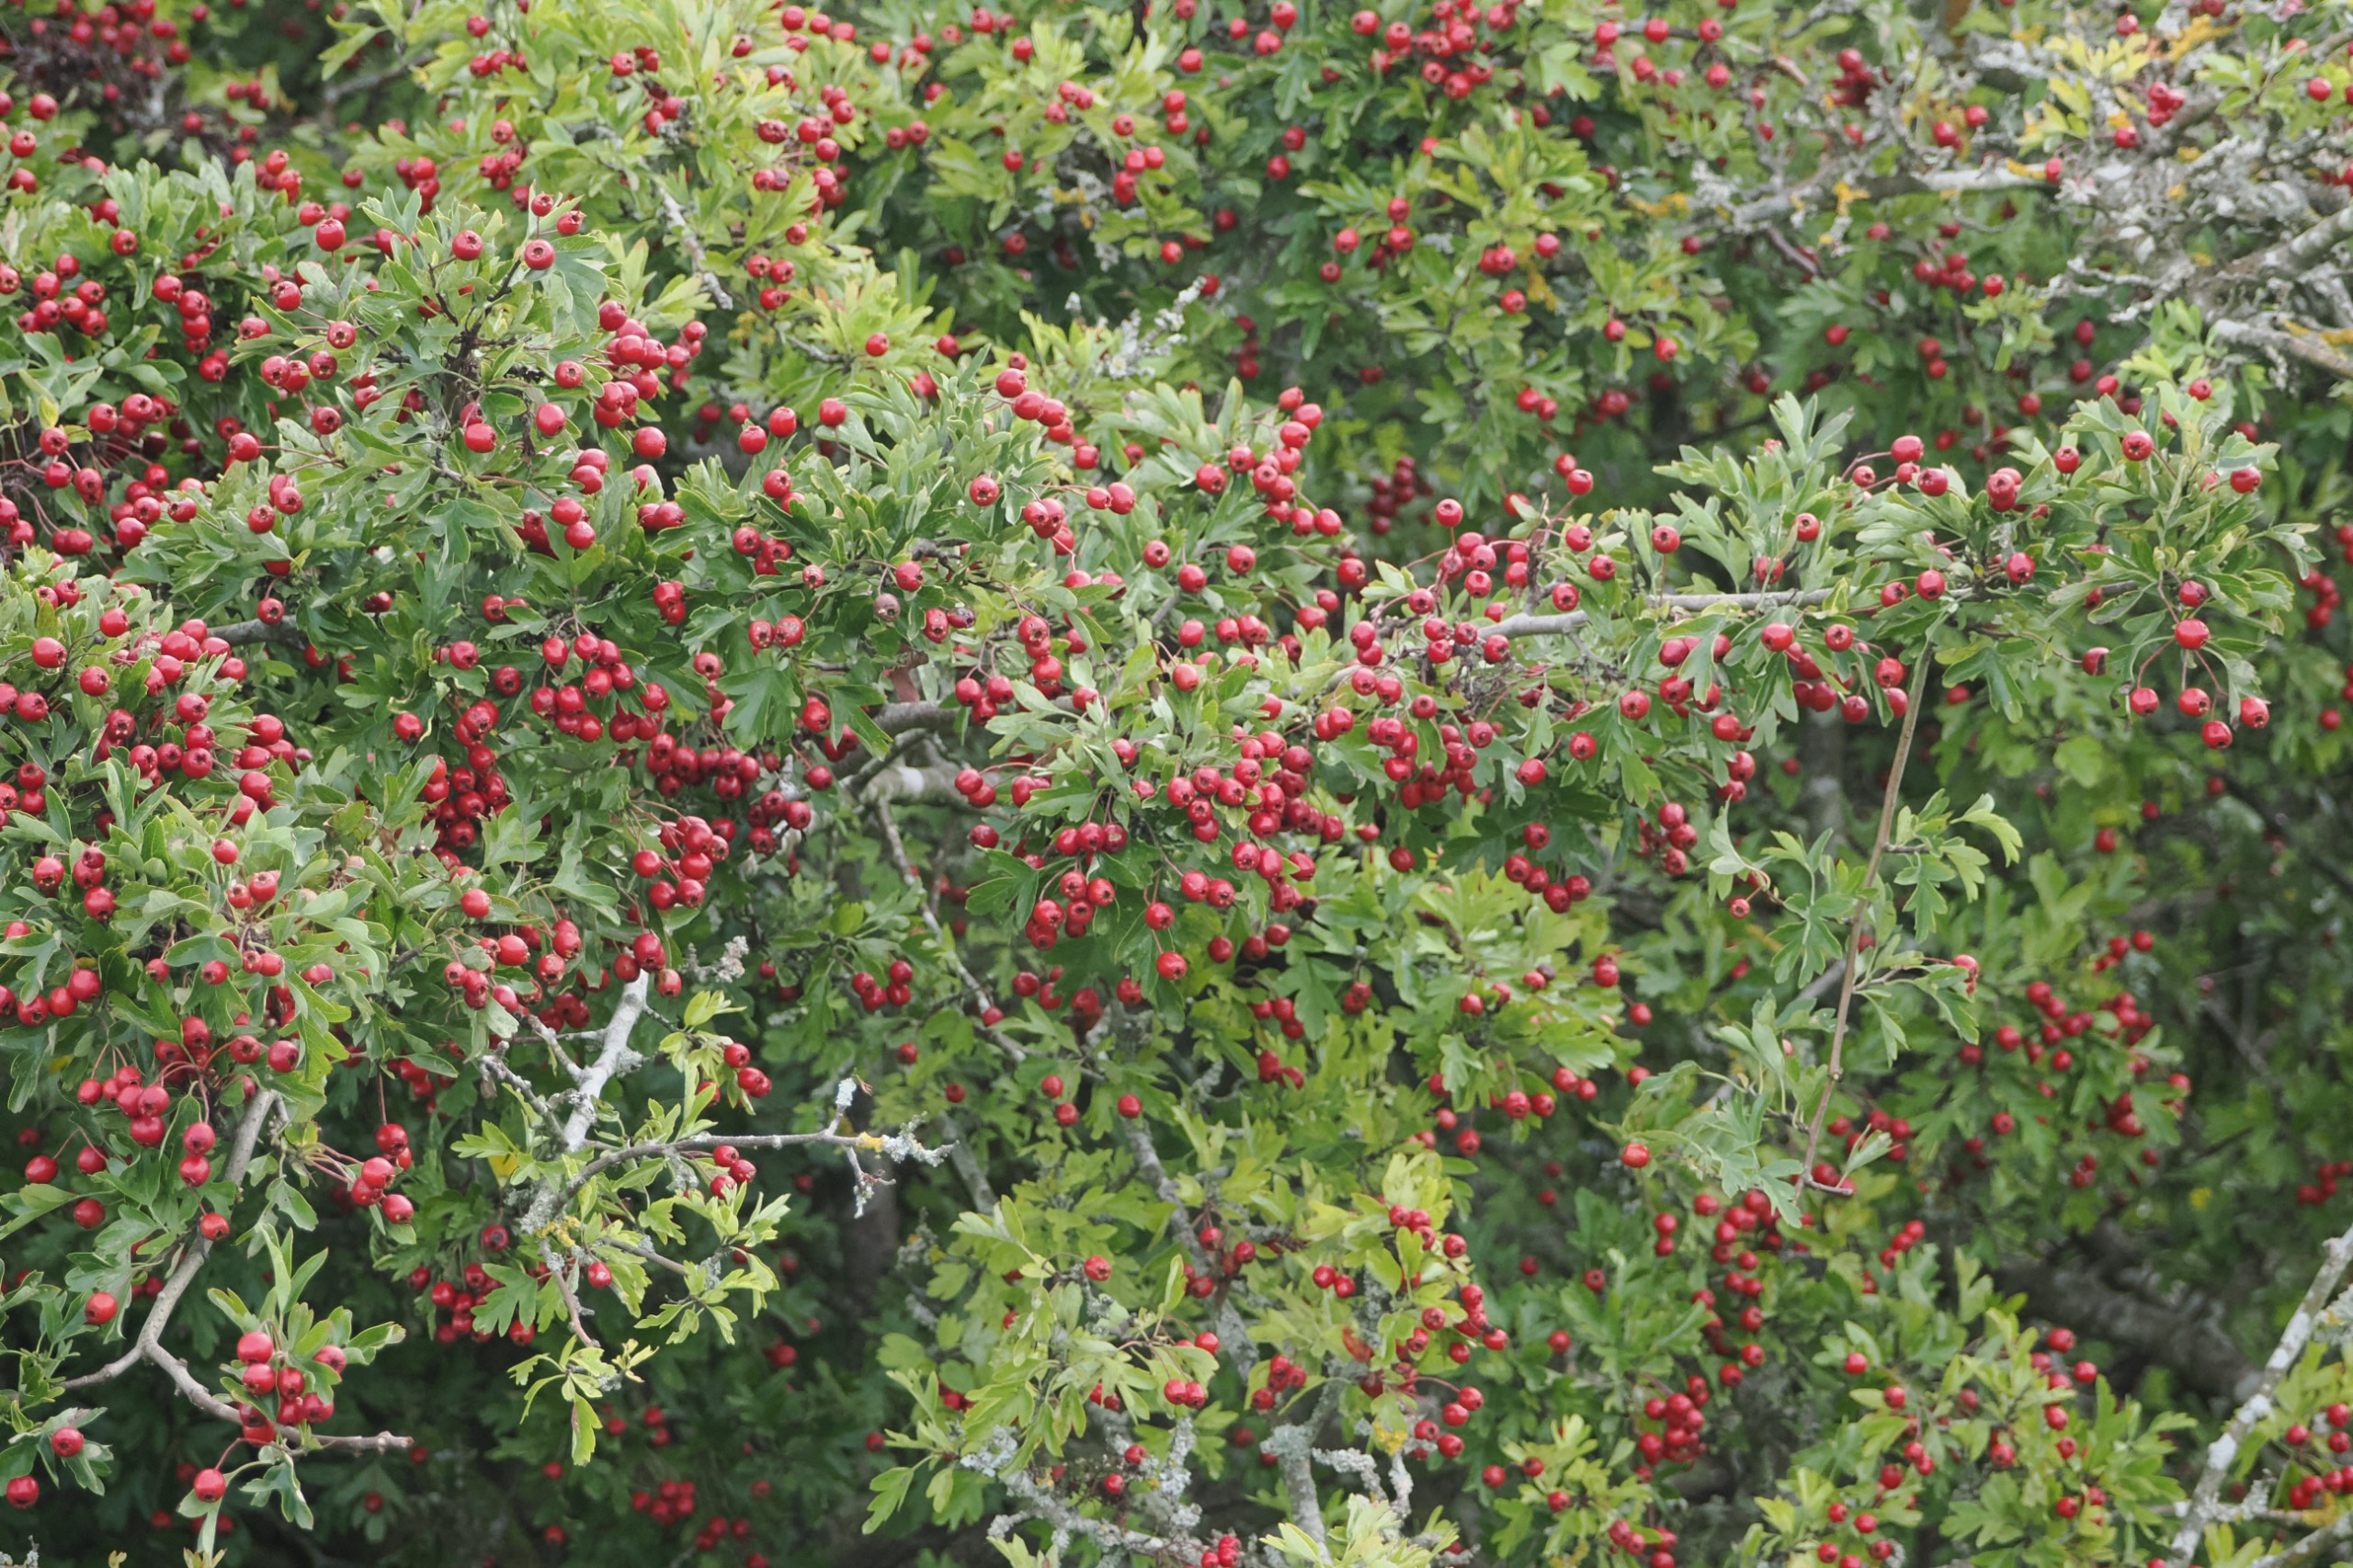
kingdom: Plantae
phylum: Tracheophyta
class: Magnoliopsida
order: Rosales
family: Rosaceae
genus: Crataegus
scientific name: Crataegus monogyna
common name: Engriflet hvidtjørn
